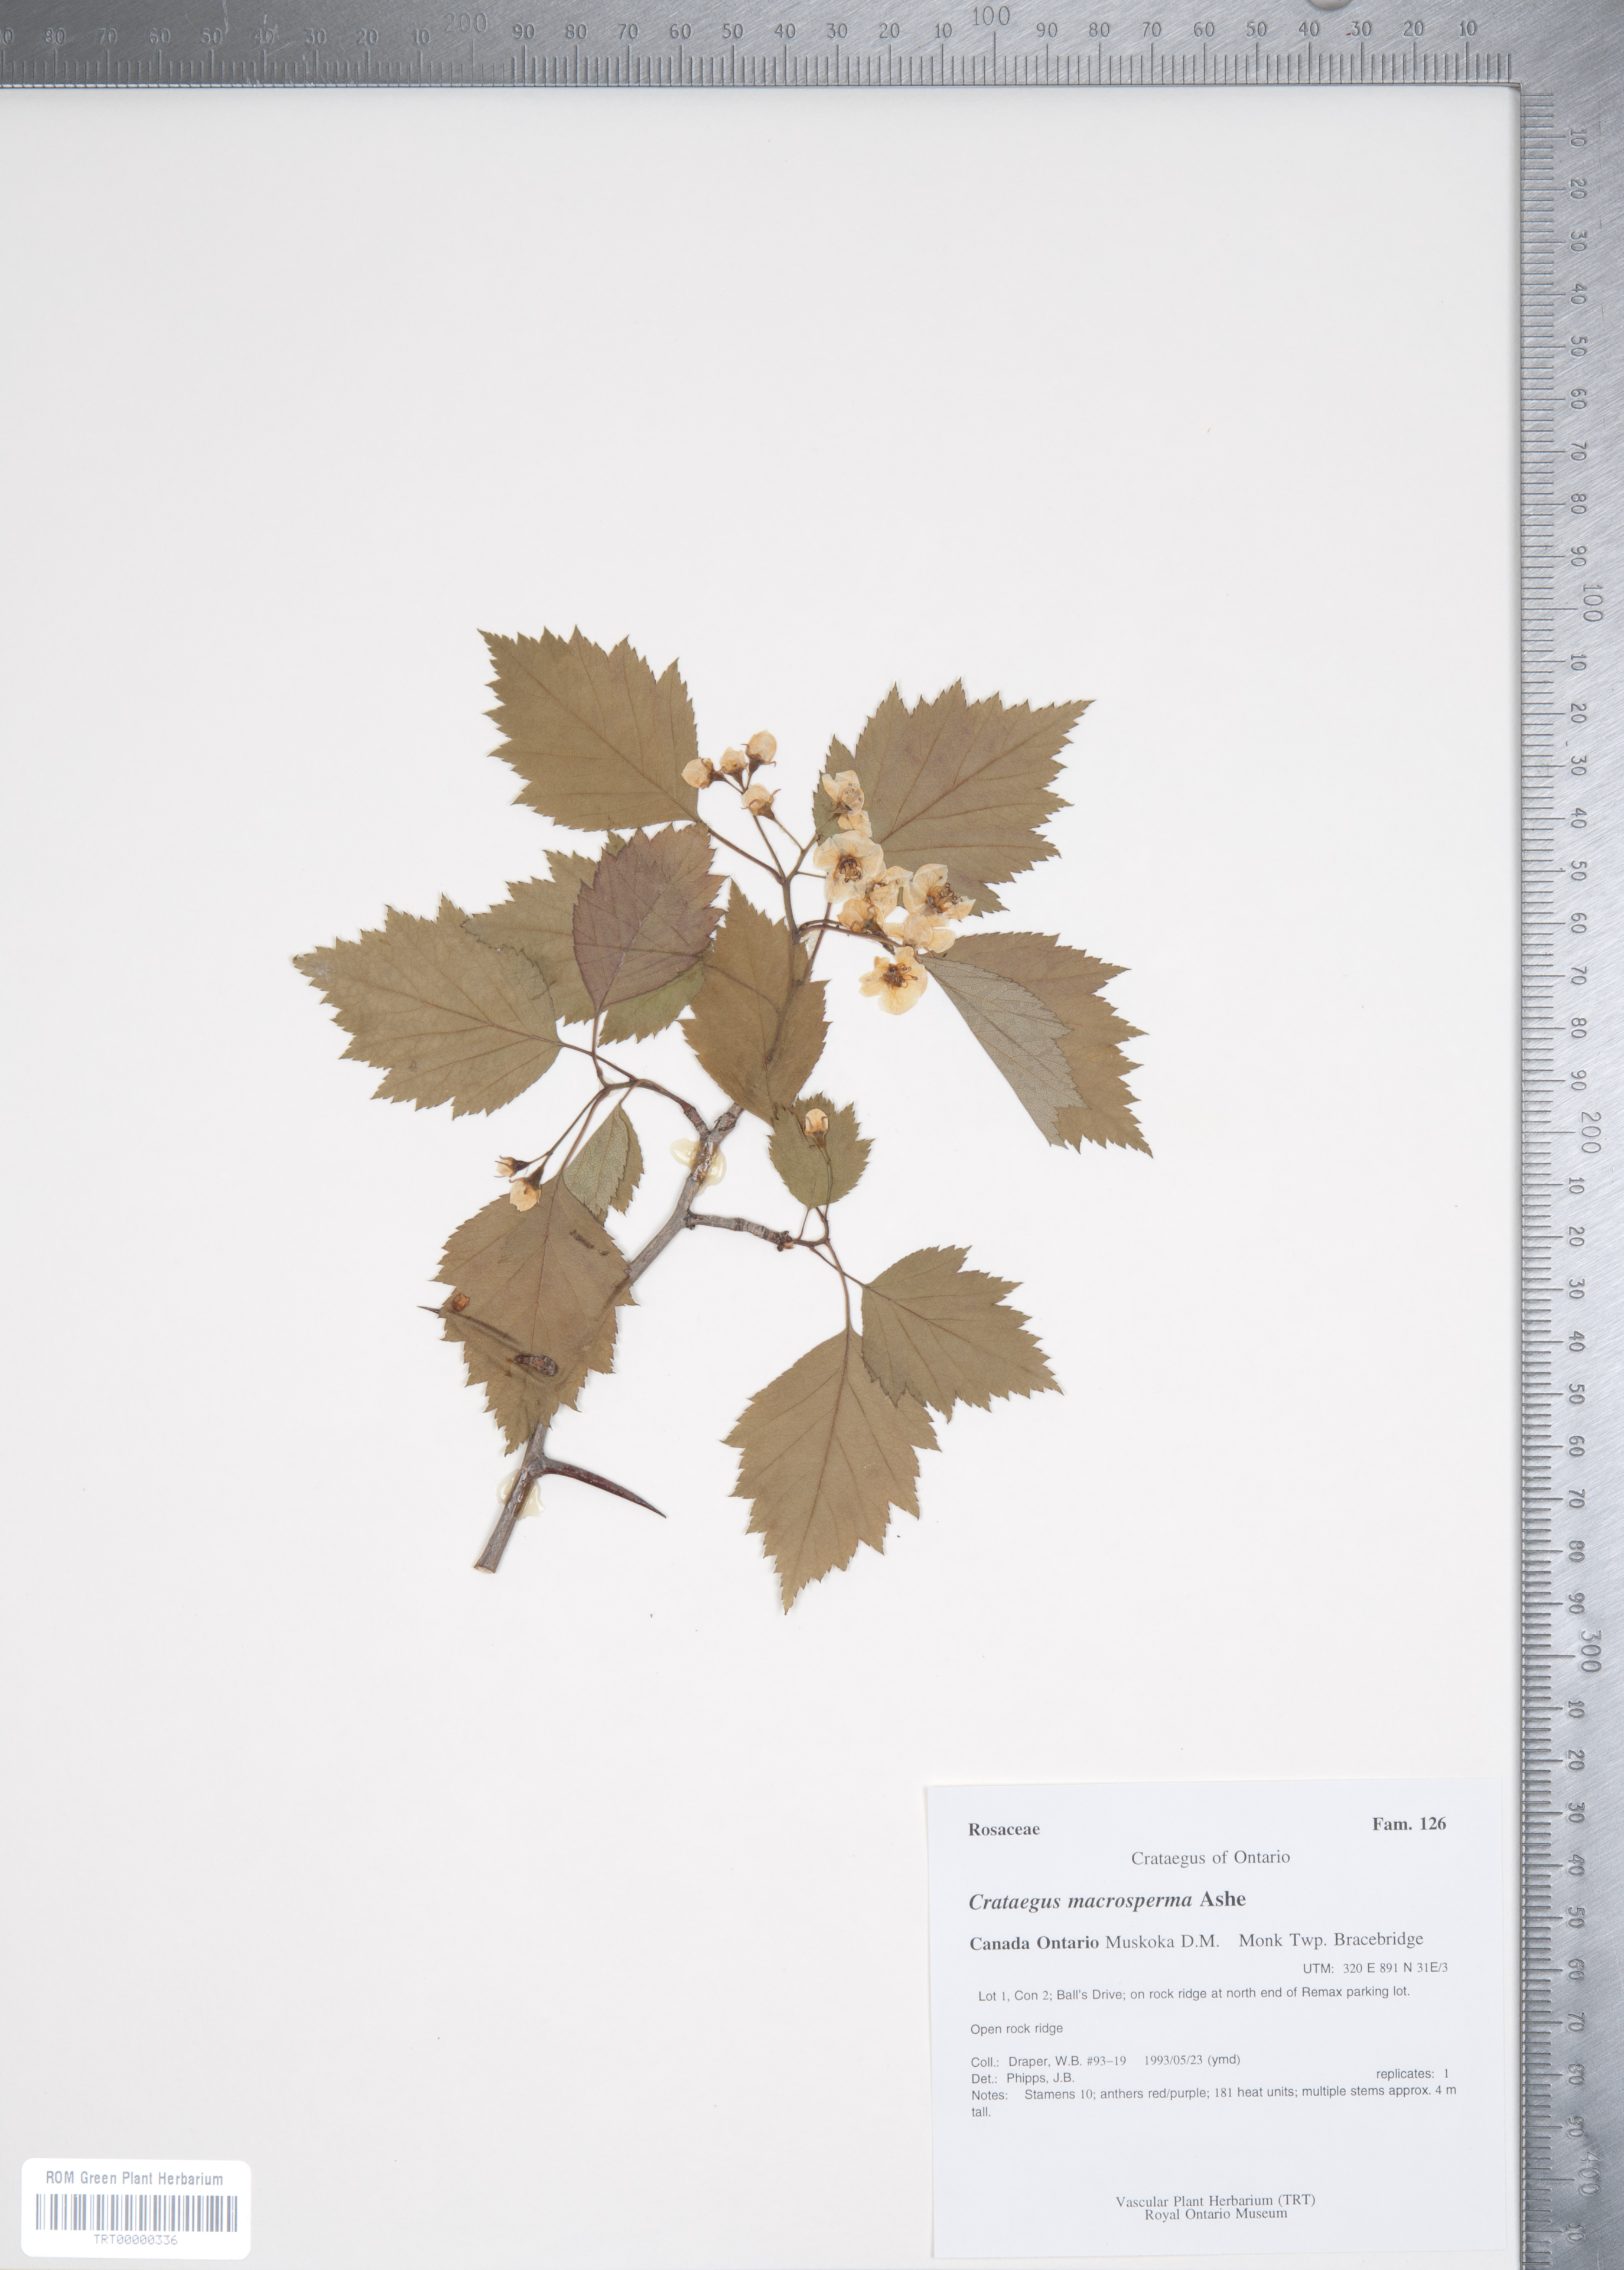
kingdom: Plantae
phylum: Tracheophyta
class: Magnoliopsida
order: Rosales
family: Rosaceae
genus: Crataegus
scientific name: Crataegus macrosperma
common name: Variable hawthorn
